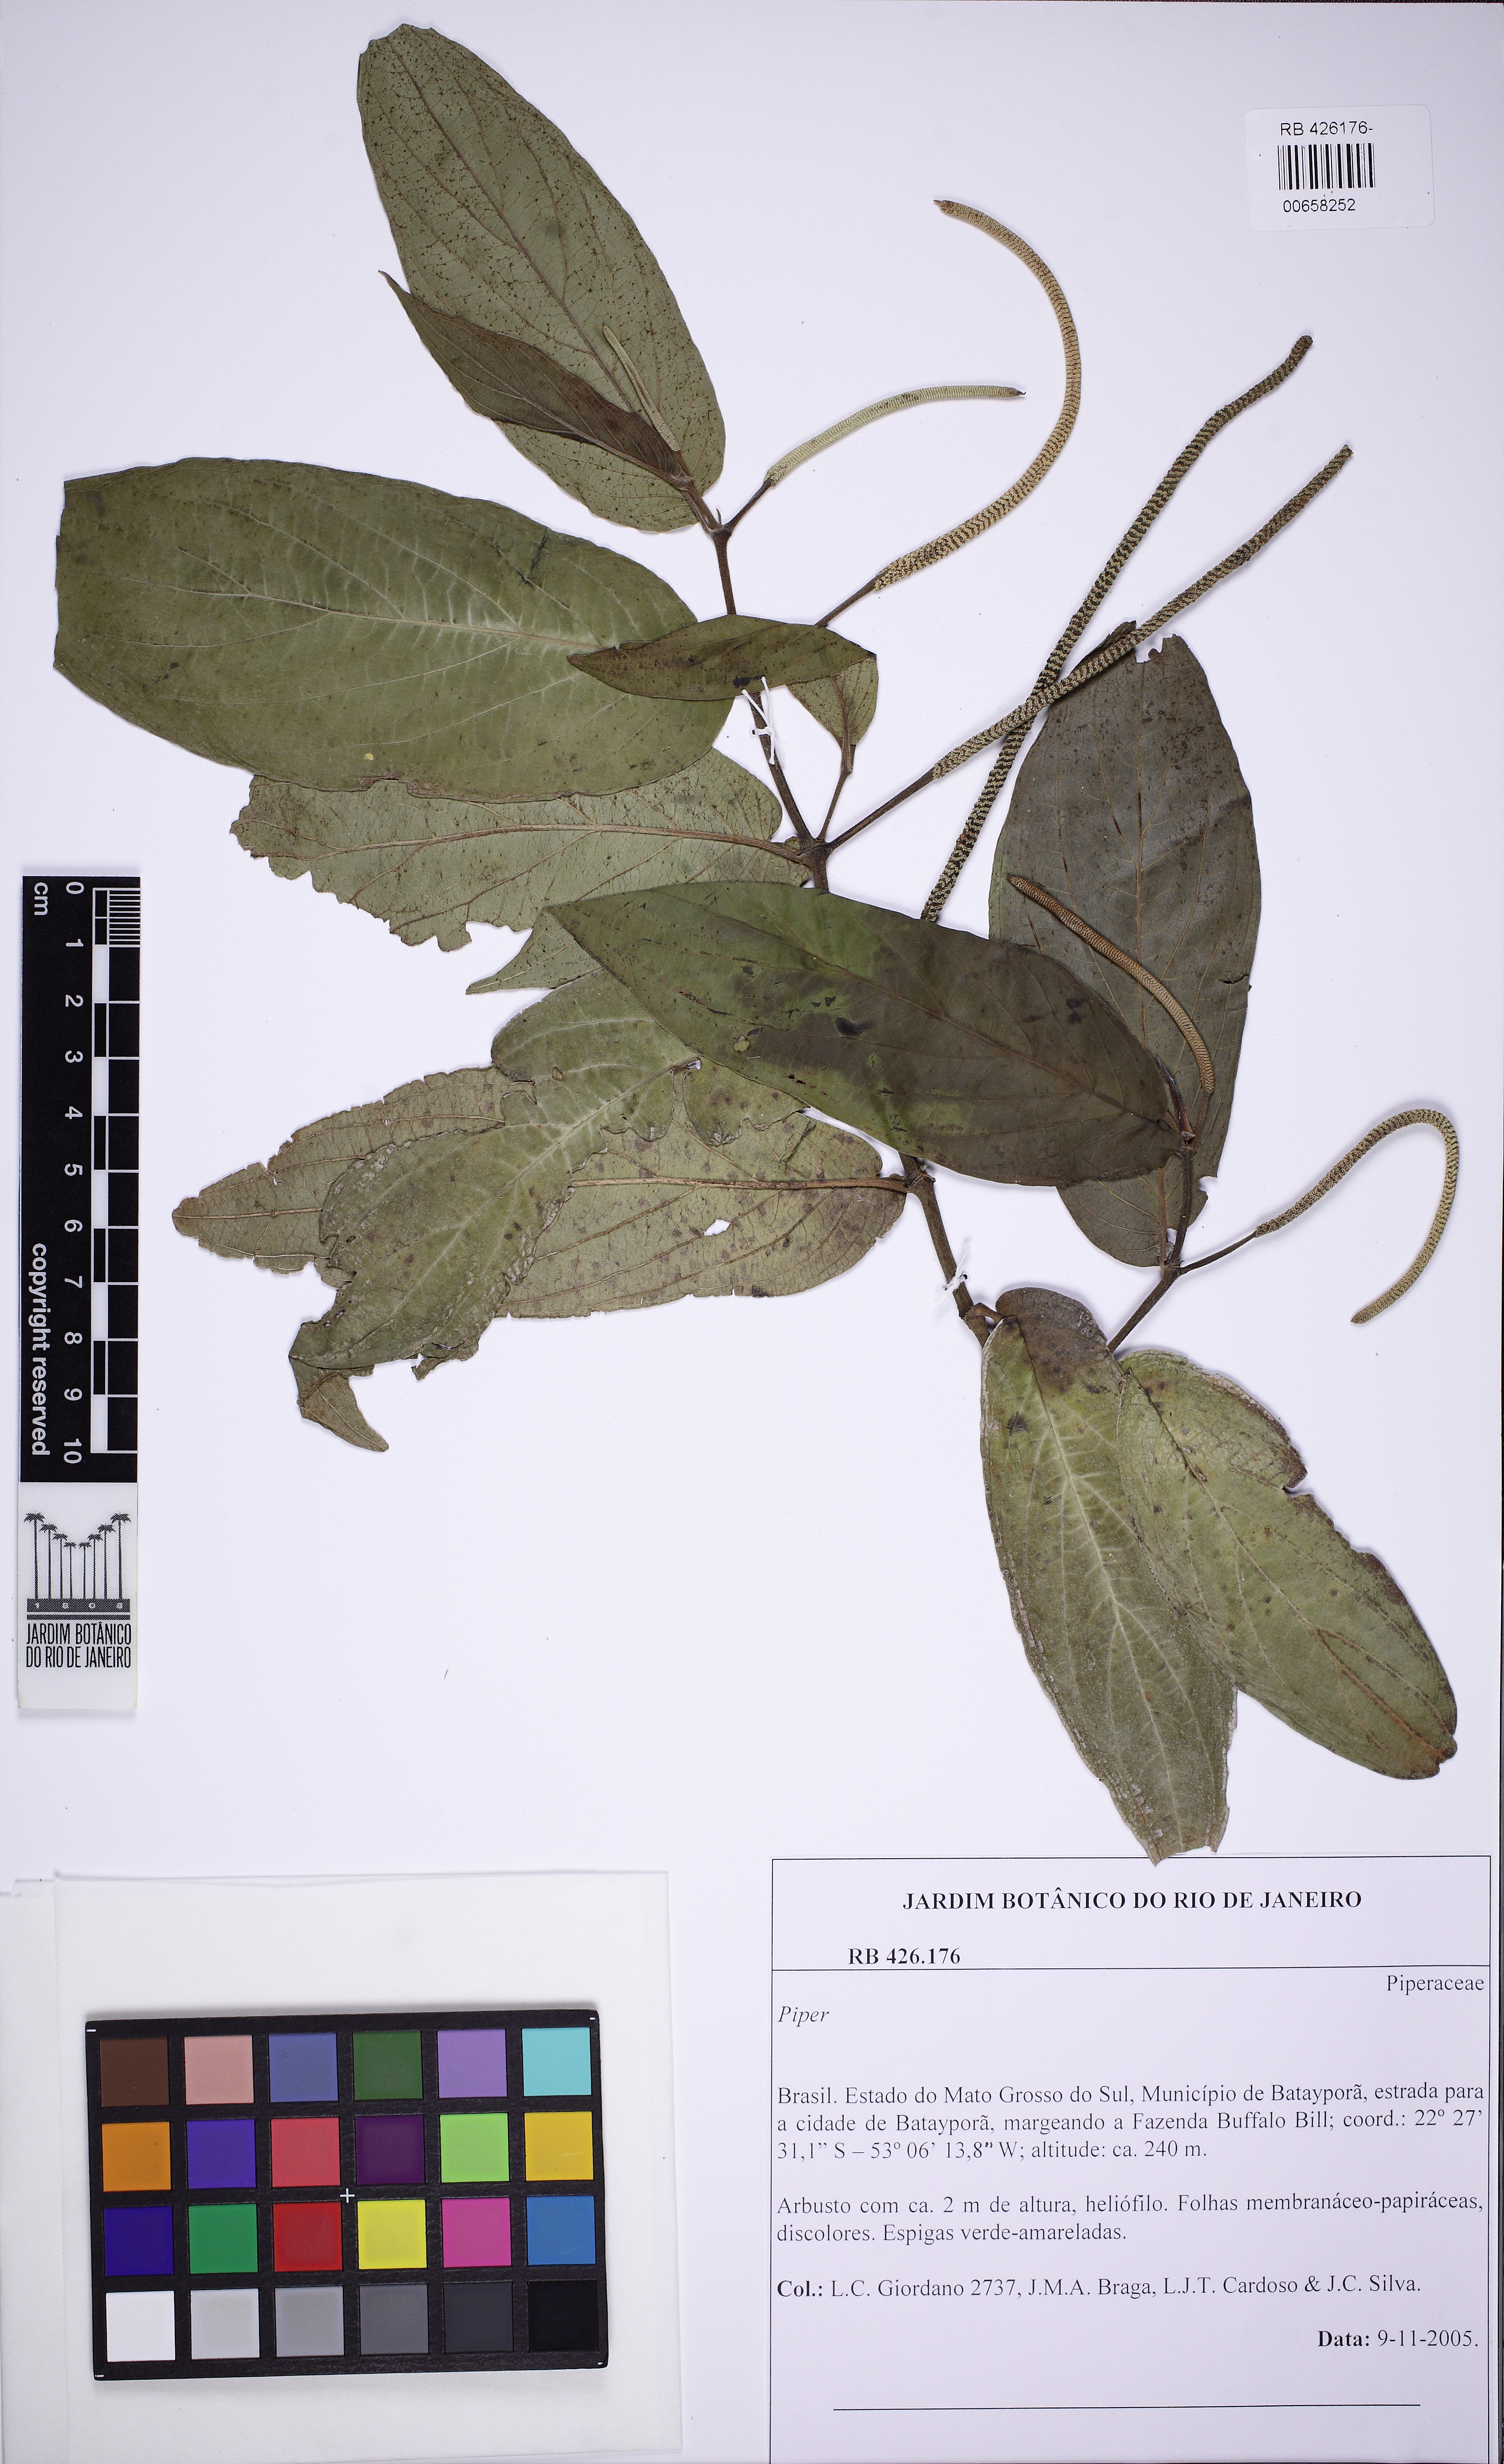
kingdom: Plantae
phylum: Tracheophyta
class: Magnoliopsida
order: Piperales
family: Piperaceae
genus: Piper
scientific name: Piper aduncum
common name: Spiked pepper
